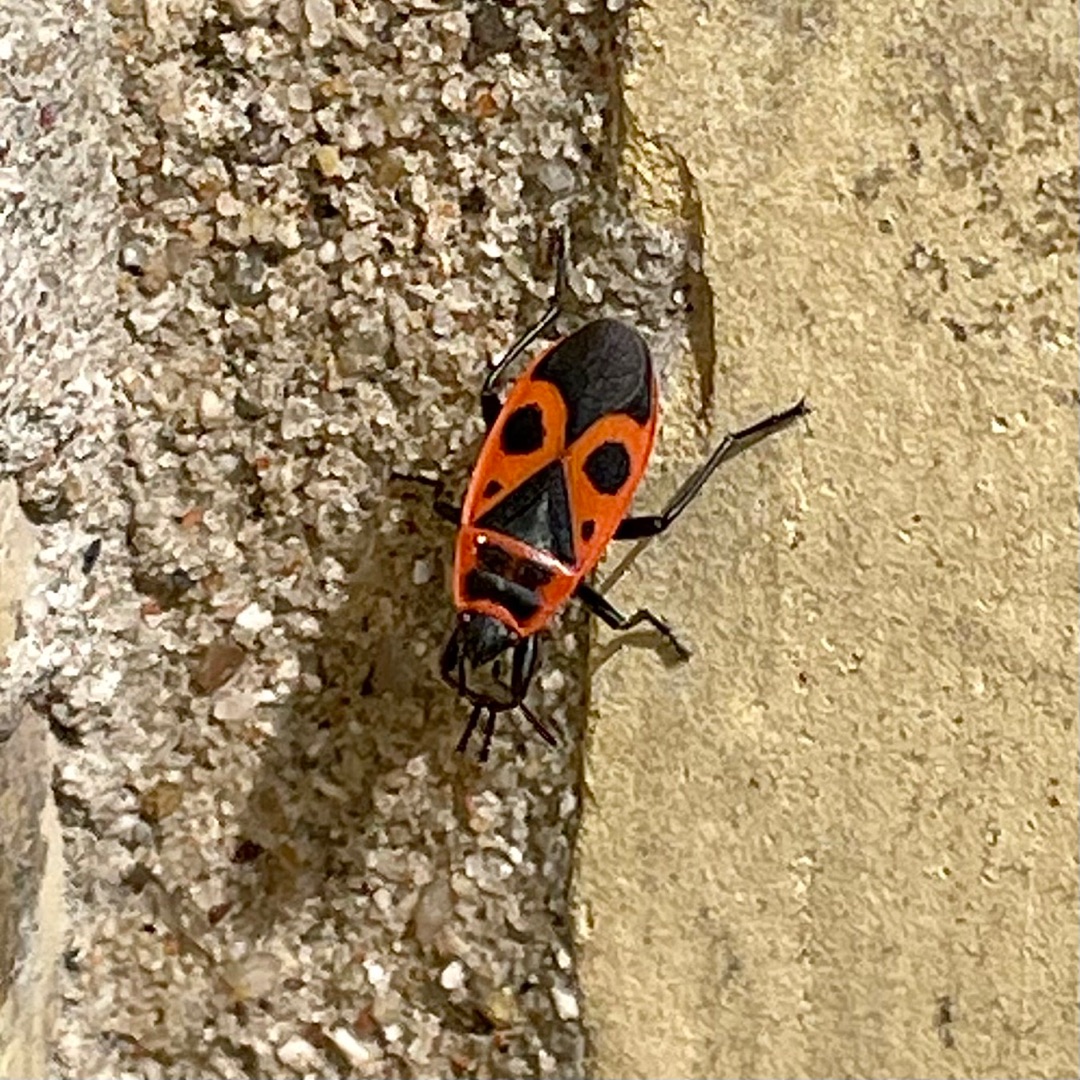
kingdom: Animalia
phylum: Arthropoda
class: Insecta
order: Hemiptera
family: Pyrrhocoridae
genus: Pyrrhocoris
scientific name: Pyrrhocoris apterus
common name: Ildtæge
